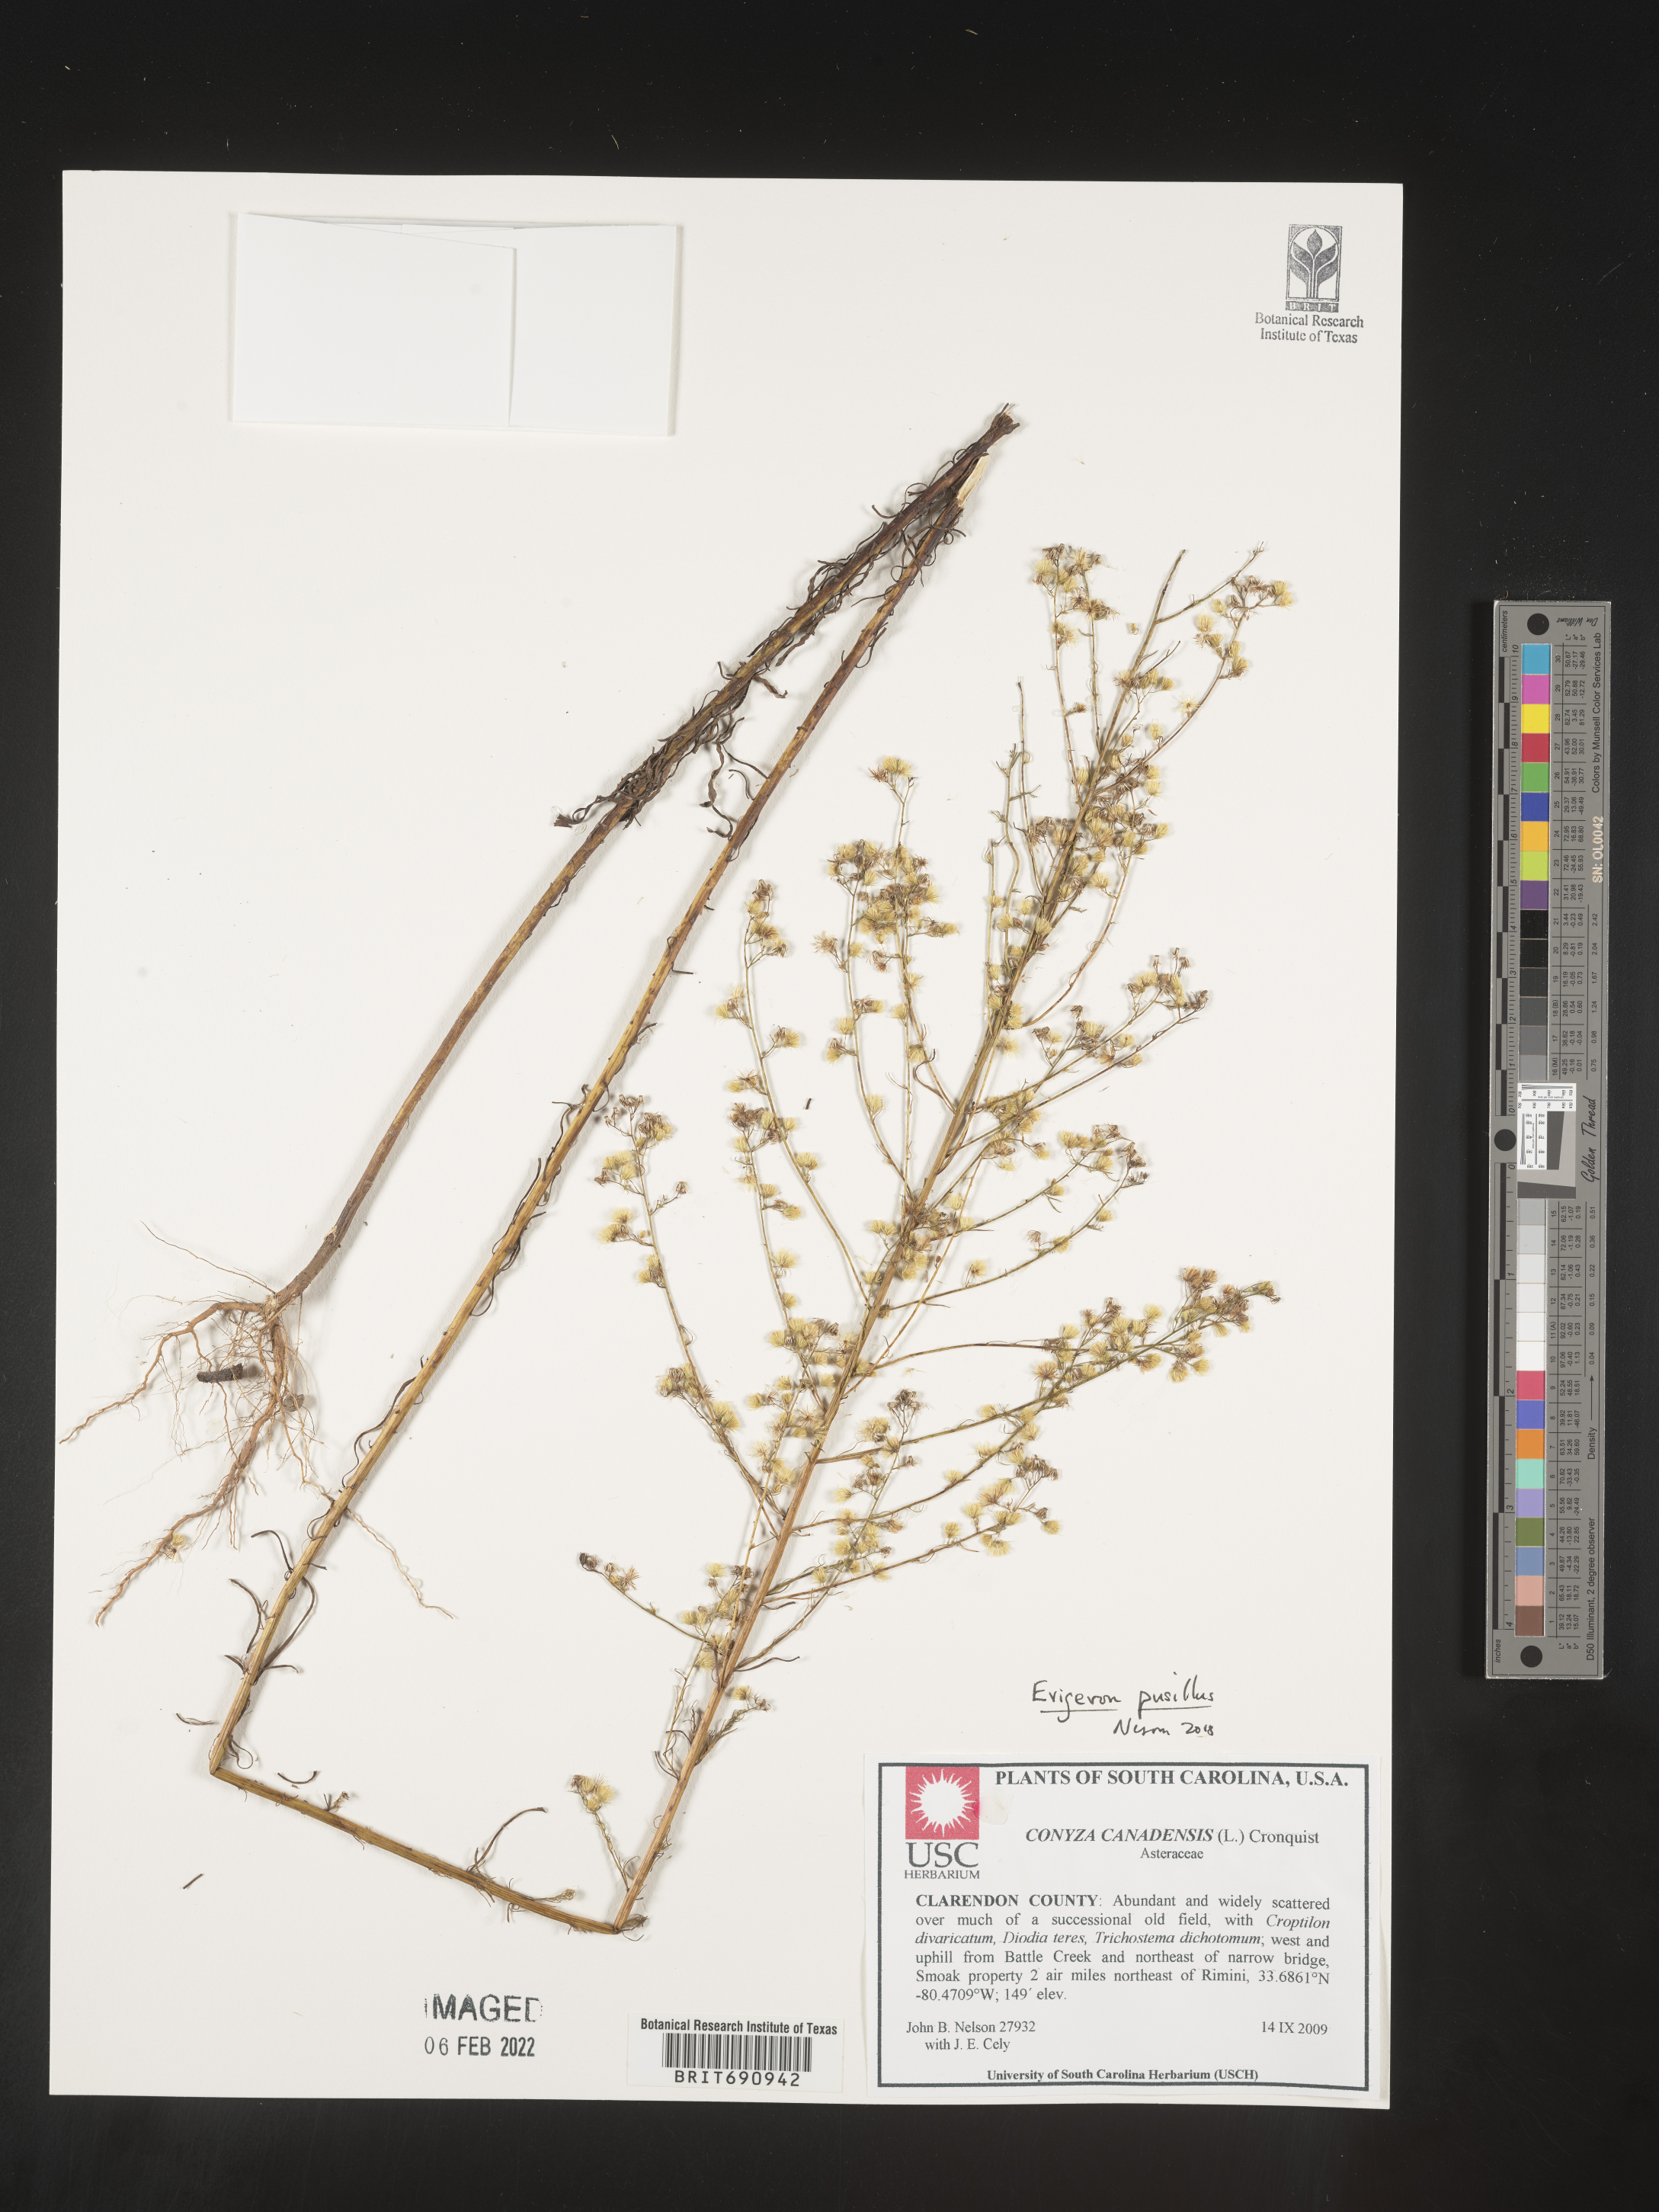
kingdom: Plantae
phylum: Tracheophyta
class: Magnoliopsida
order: Asterales
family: Asteraceae
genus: Erigeron
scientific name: Erigeron canadensis
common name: Canadian fleabane
